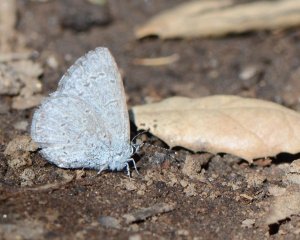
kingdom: Animalia
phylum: Arthropoda
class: Insecta
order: Lepidoptera
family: Lycaenidae
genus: Celastrina
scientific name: Celastrina ladon
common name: Echo Azure
